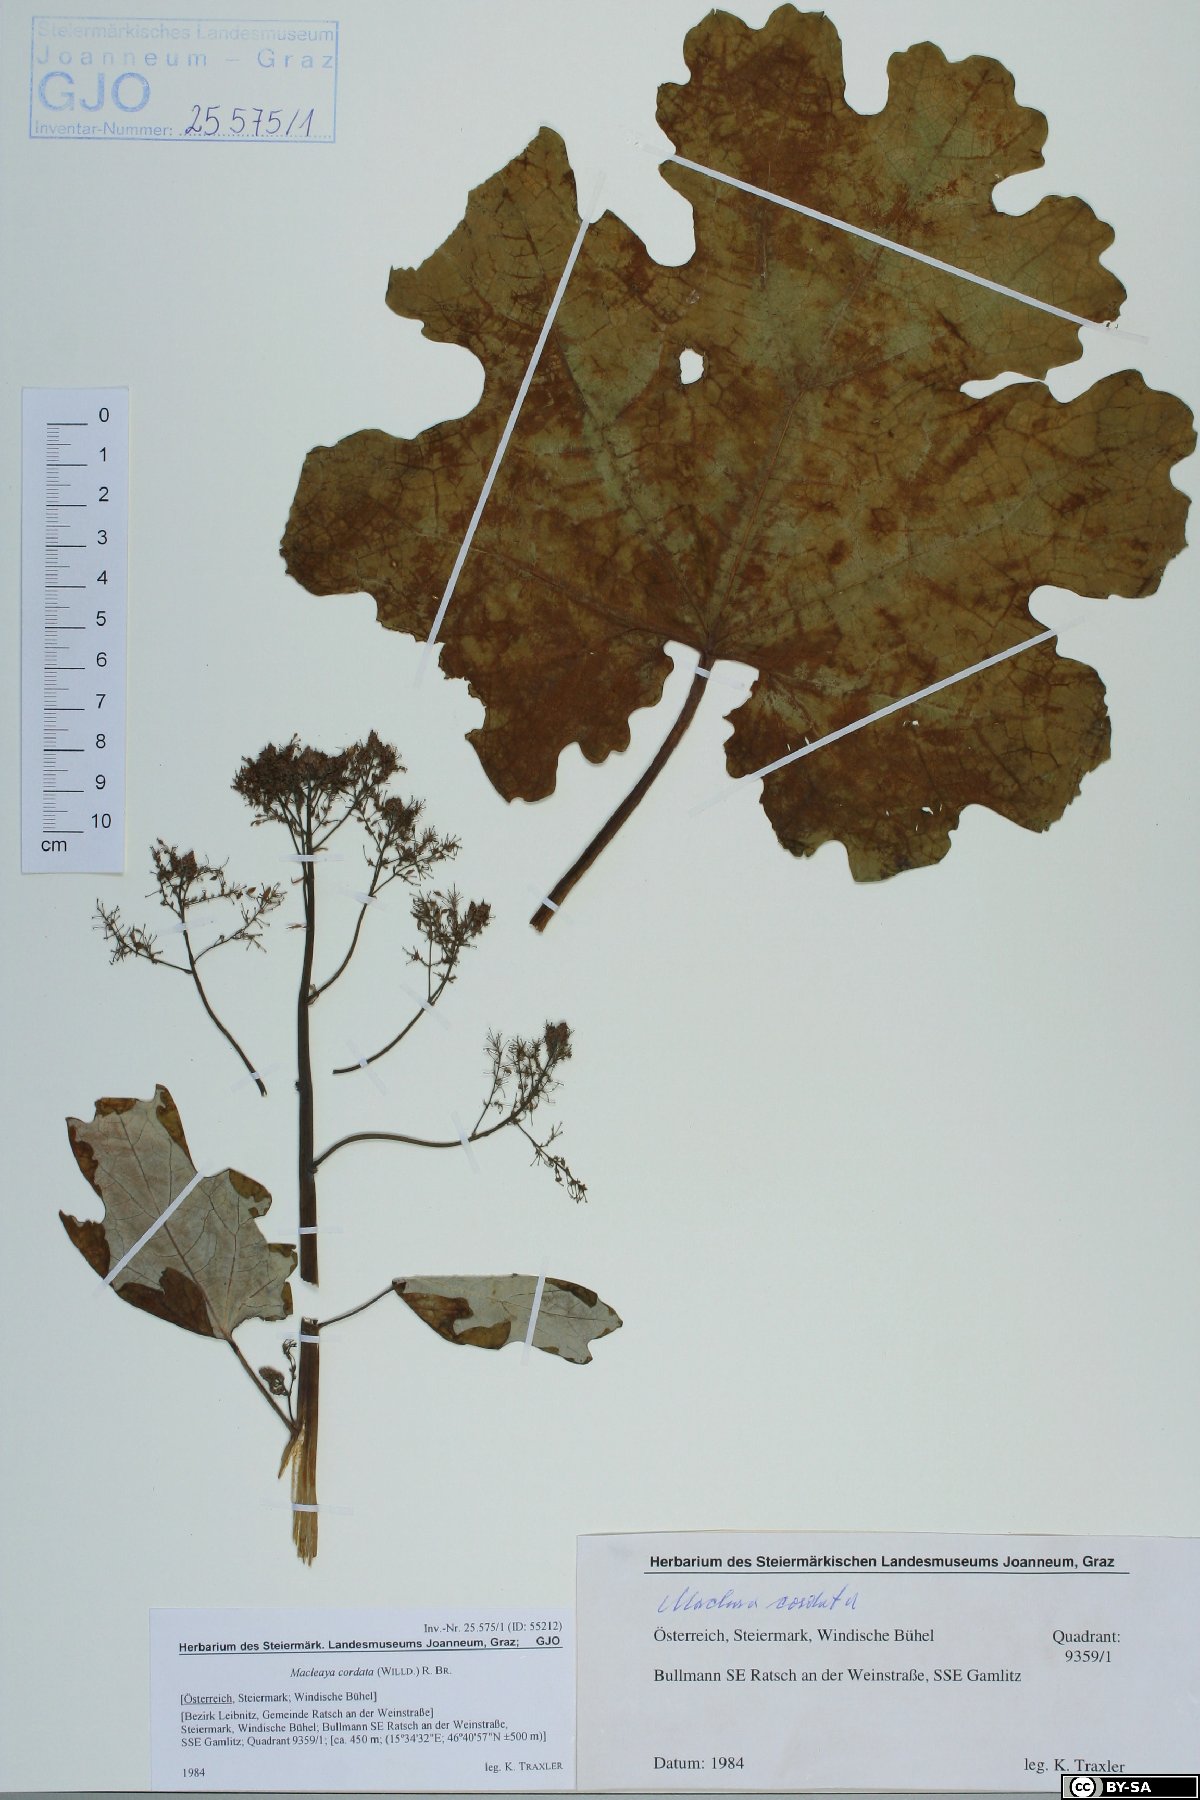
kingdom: Plantae
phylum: Tracheophyta
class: Magnoliopsida
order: Ranunculales
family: Papaveraceae
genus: Macleaya
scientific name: Macleaya cordata
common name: Plume poppy
